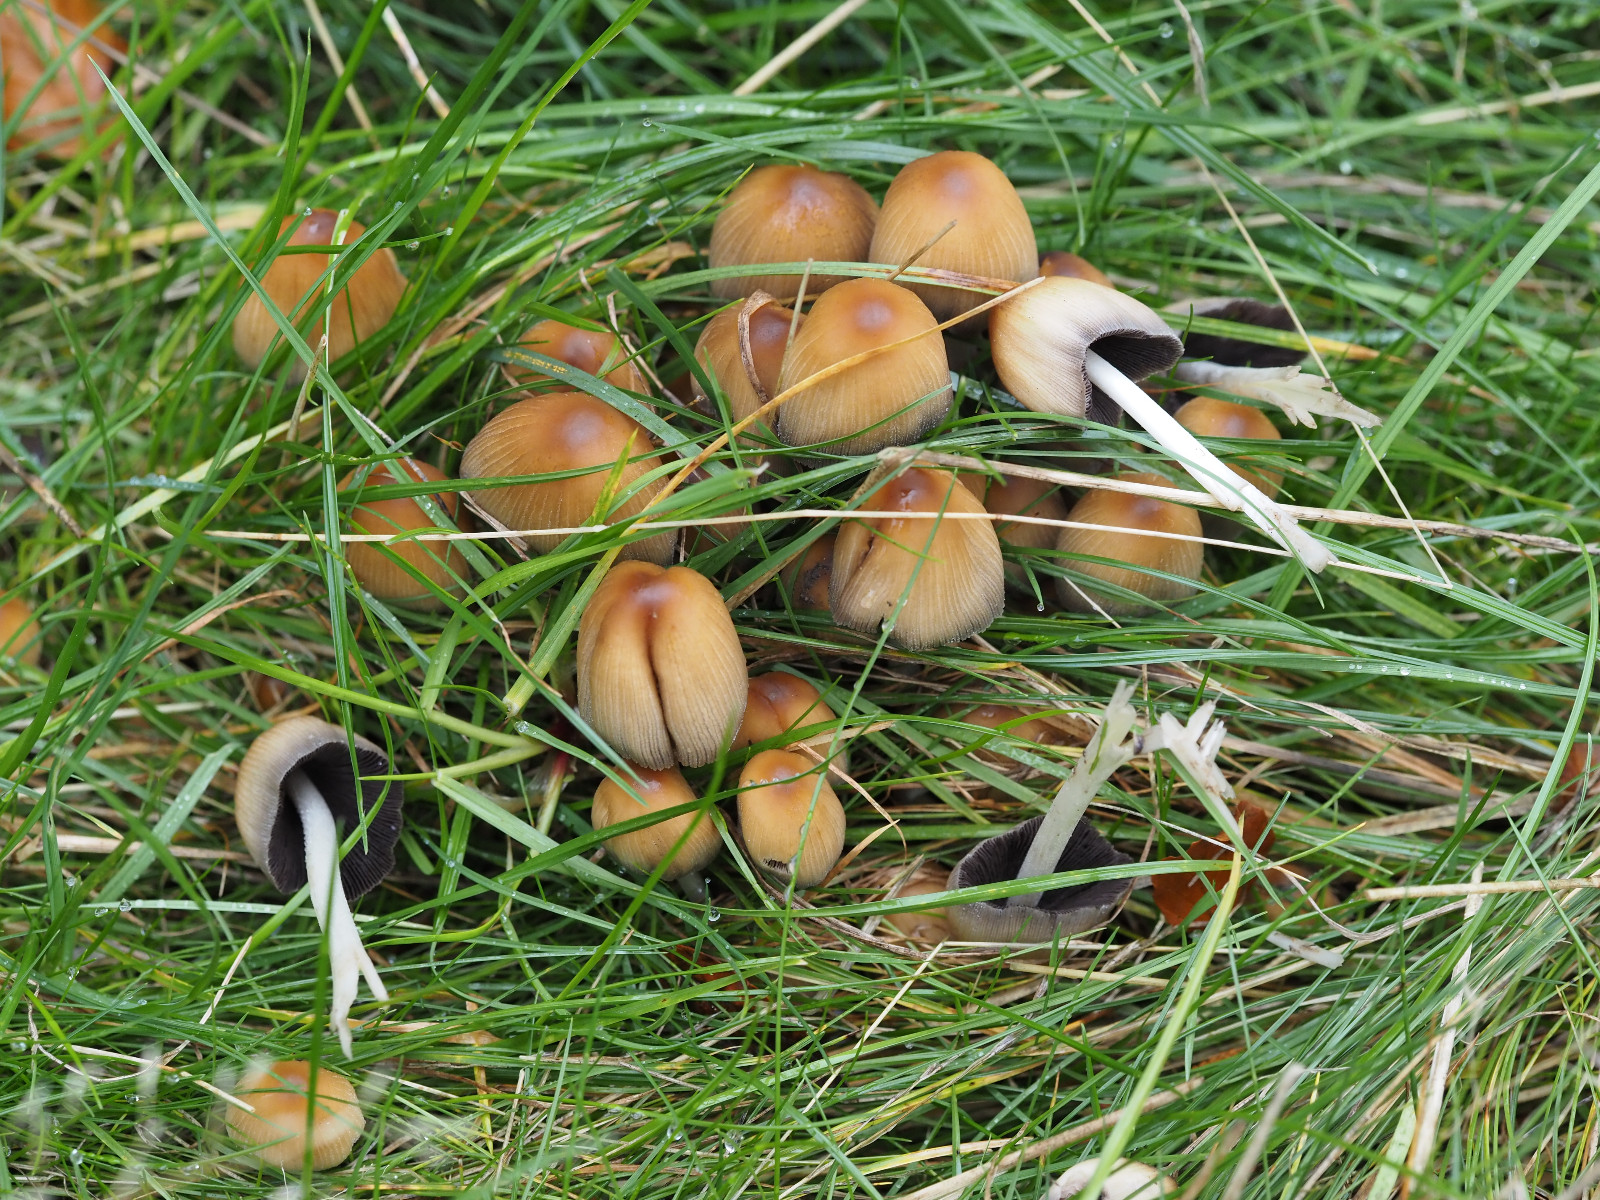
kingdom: Fungi
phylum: Basidiomycota
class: Agaricomycetes
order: Agaricales
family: Psathyrellaceae
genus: Coprinellus
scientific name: Coprinellus micaceus
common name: glimmer-blækhat
